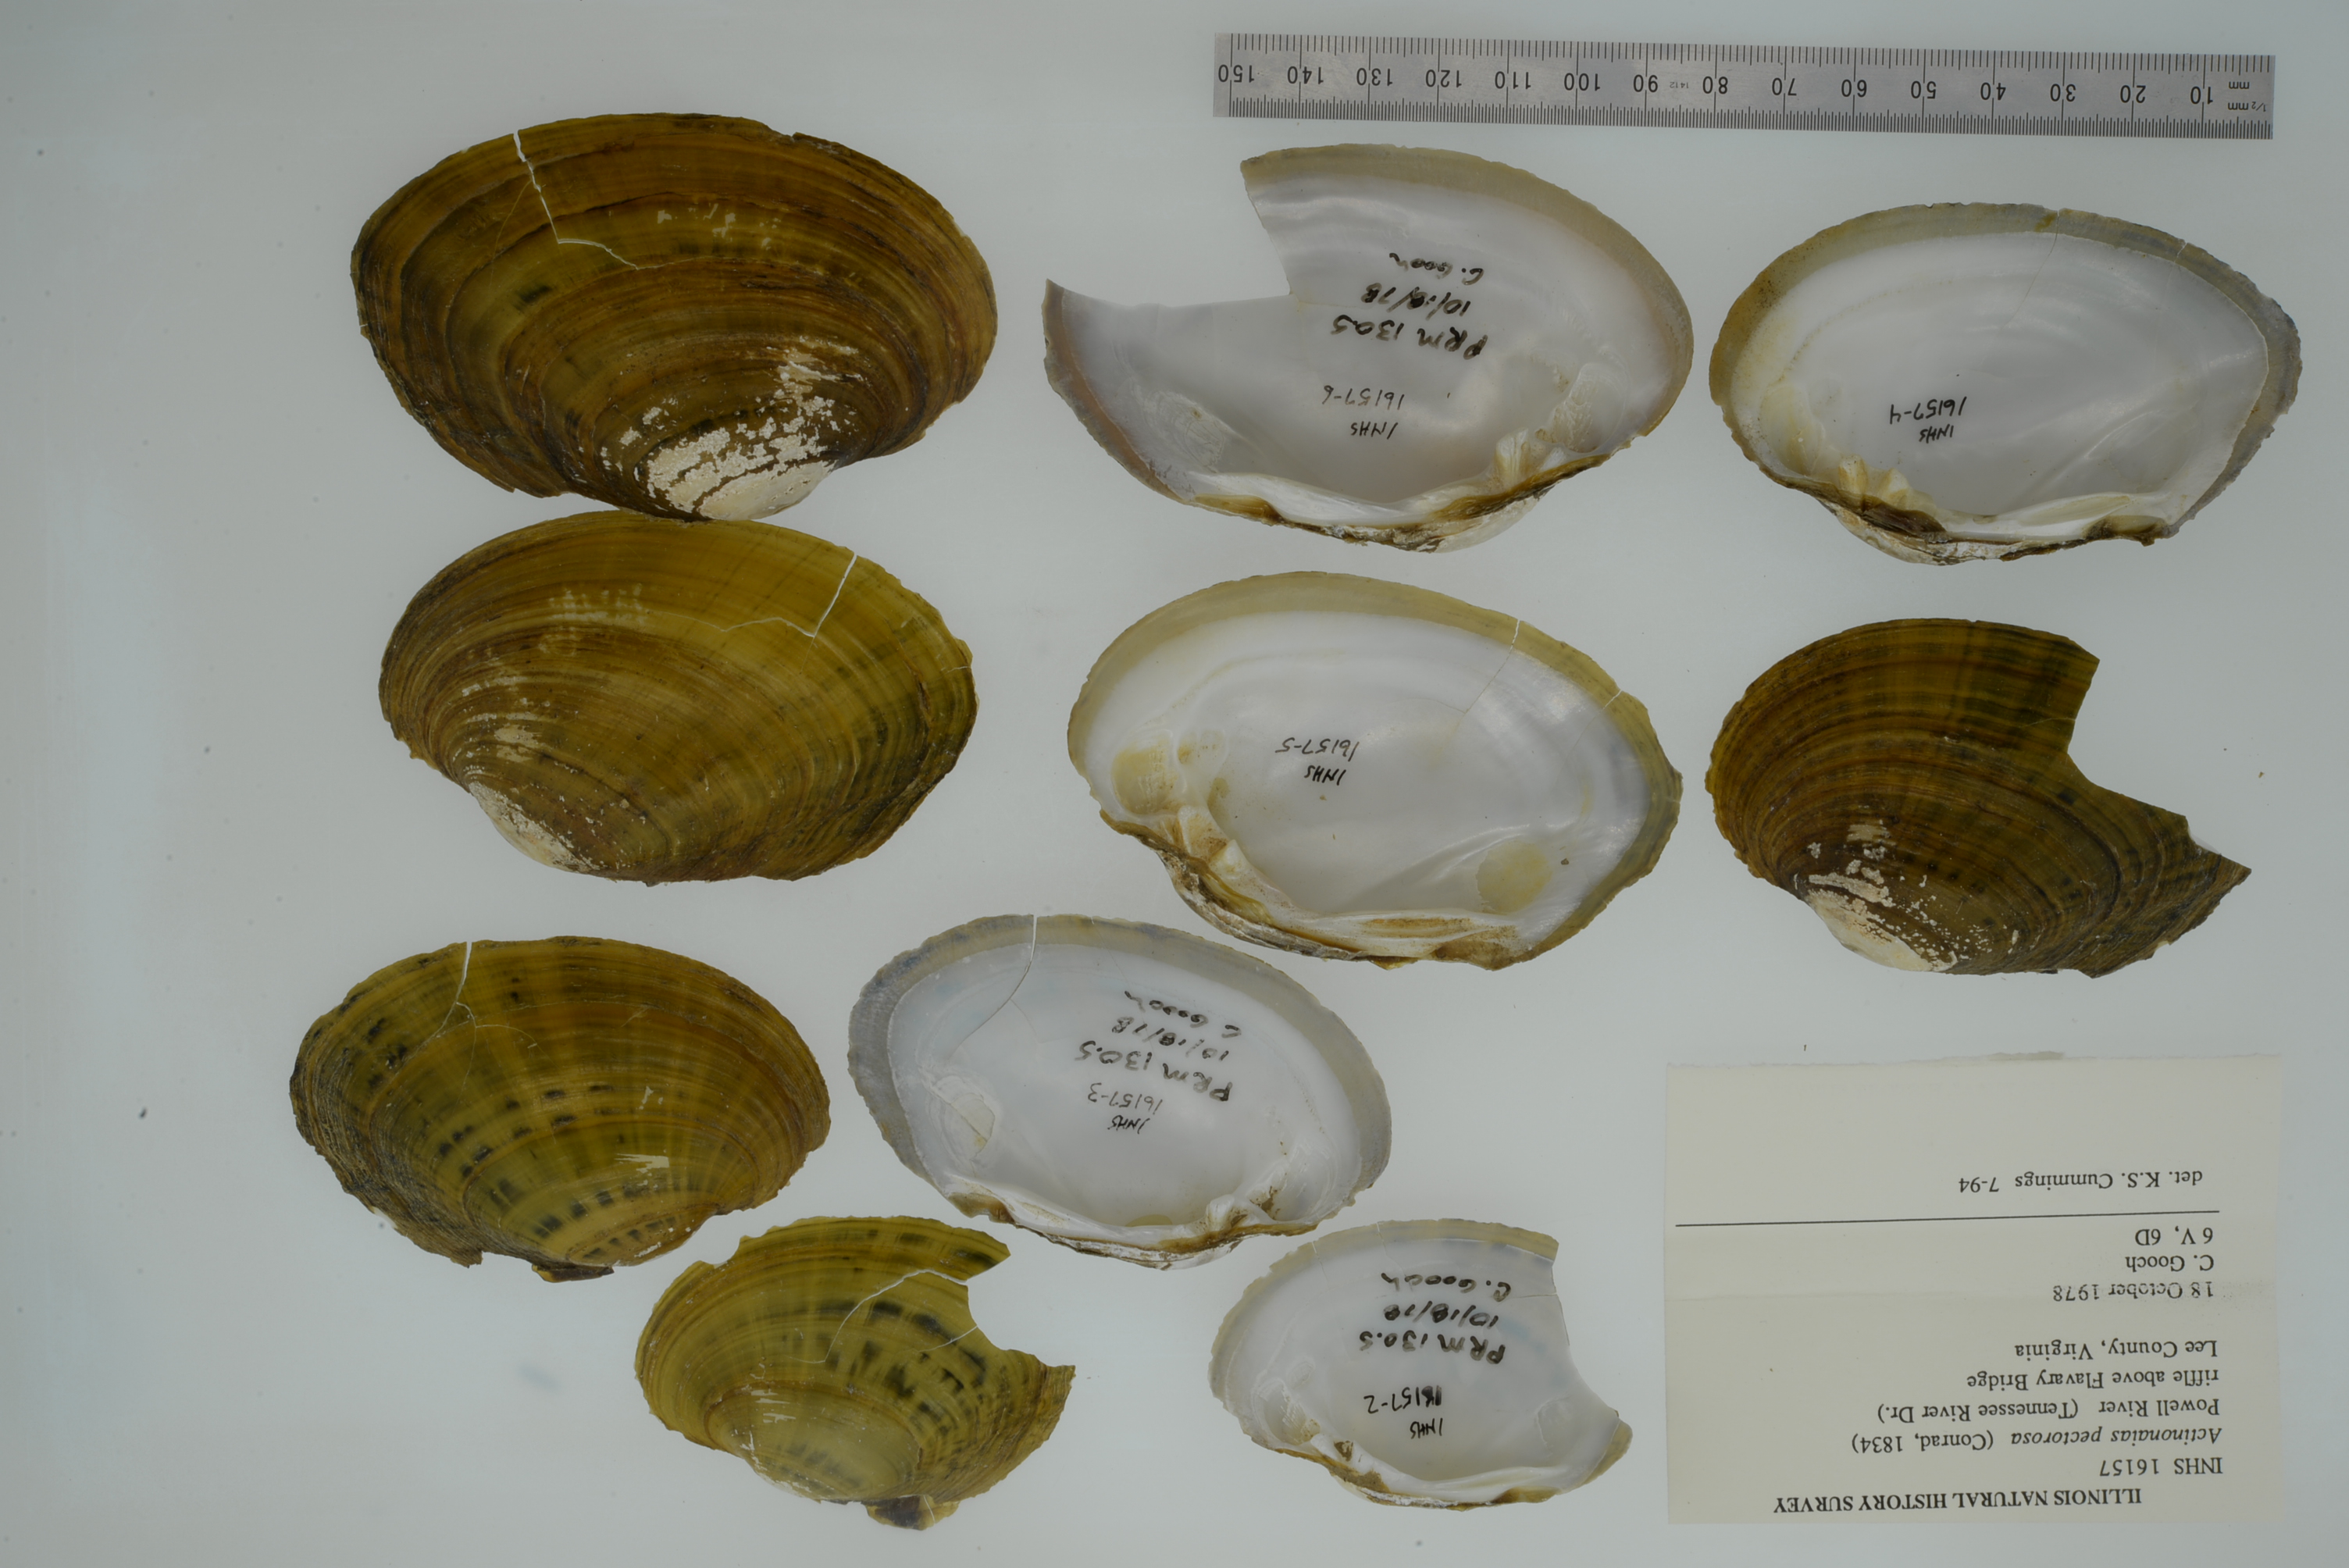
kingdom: Animalia
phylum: Mollusca
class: Bivalvia
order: Unionida
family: Unionidae
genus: Ortmanniana
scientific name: Ortmanniana pectorosa
